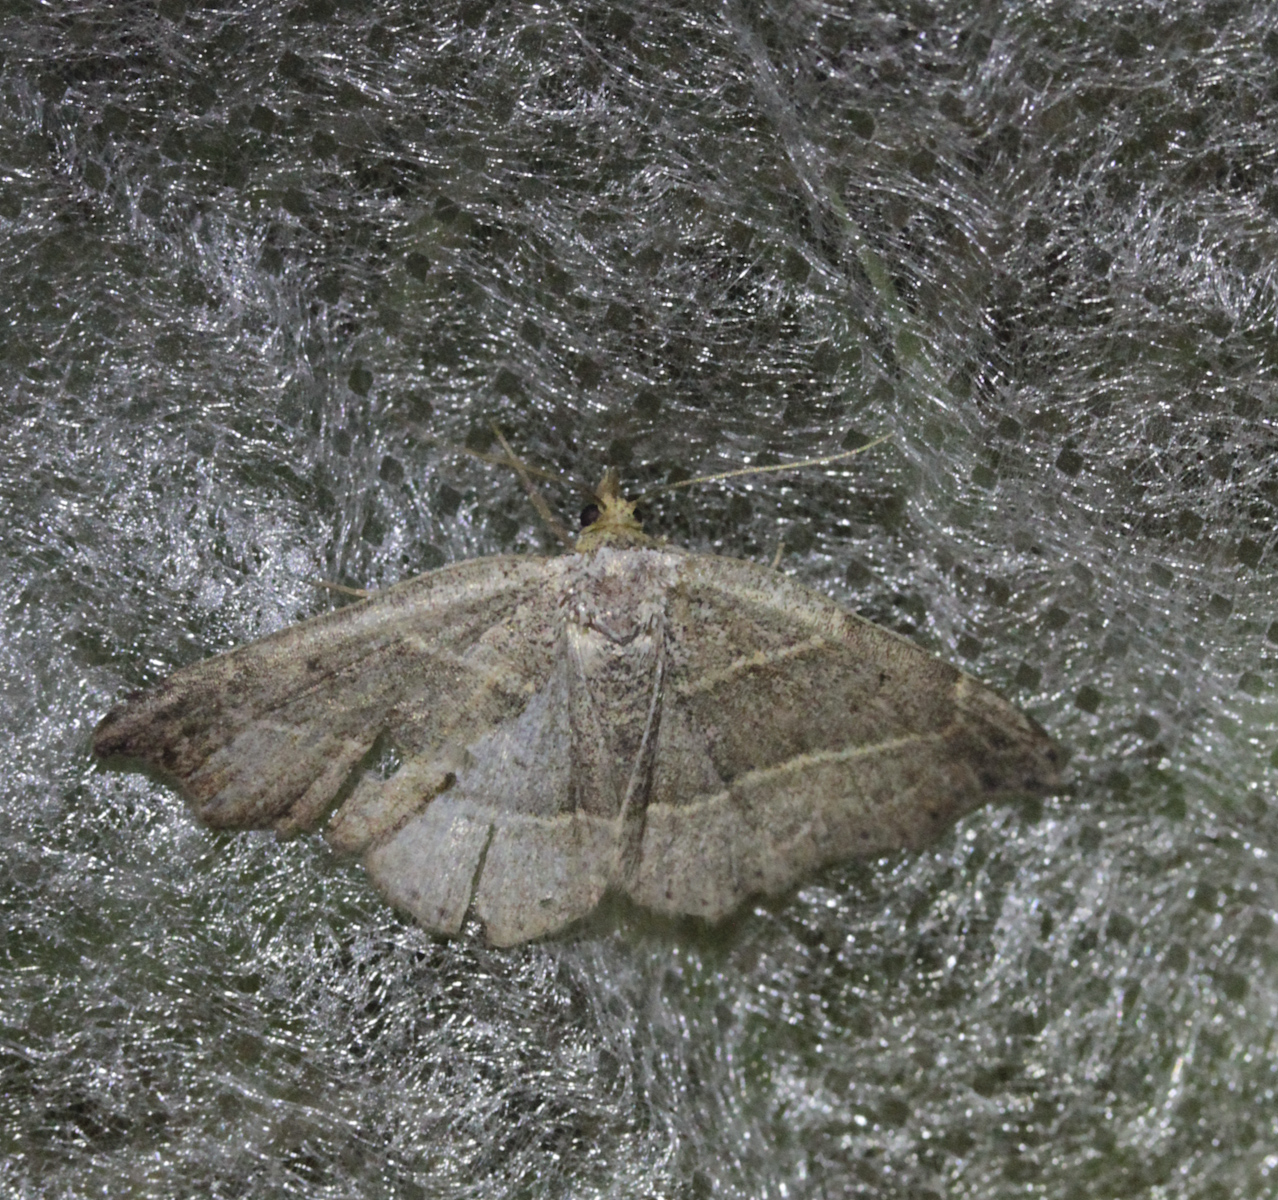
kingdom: Animalia
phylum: Arthropoda
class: Insecta
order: Lepidoptera
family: Erebidae
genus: Laspeyria
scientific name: Laspeyria flexula
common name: Beautiful hook-tip
